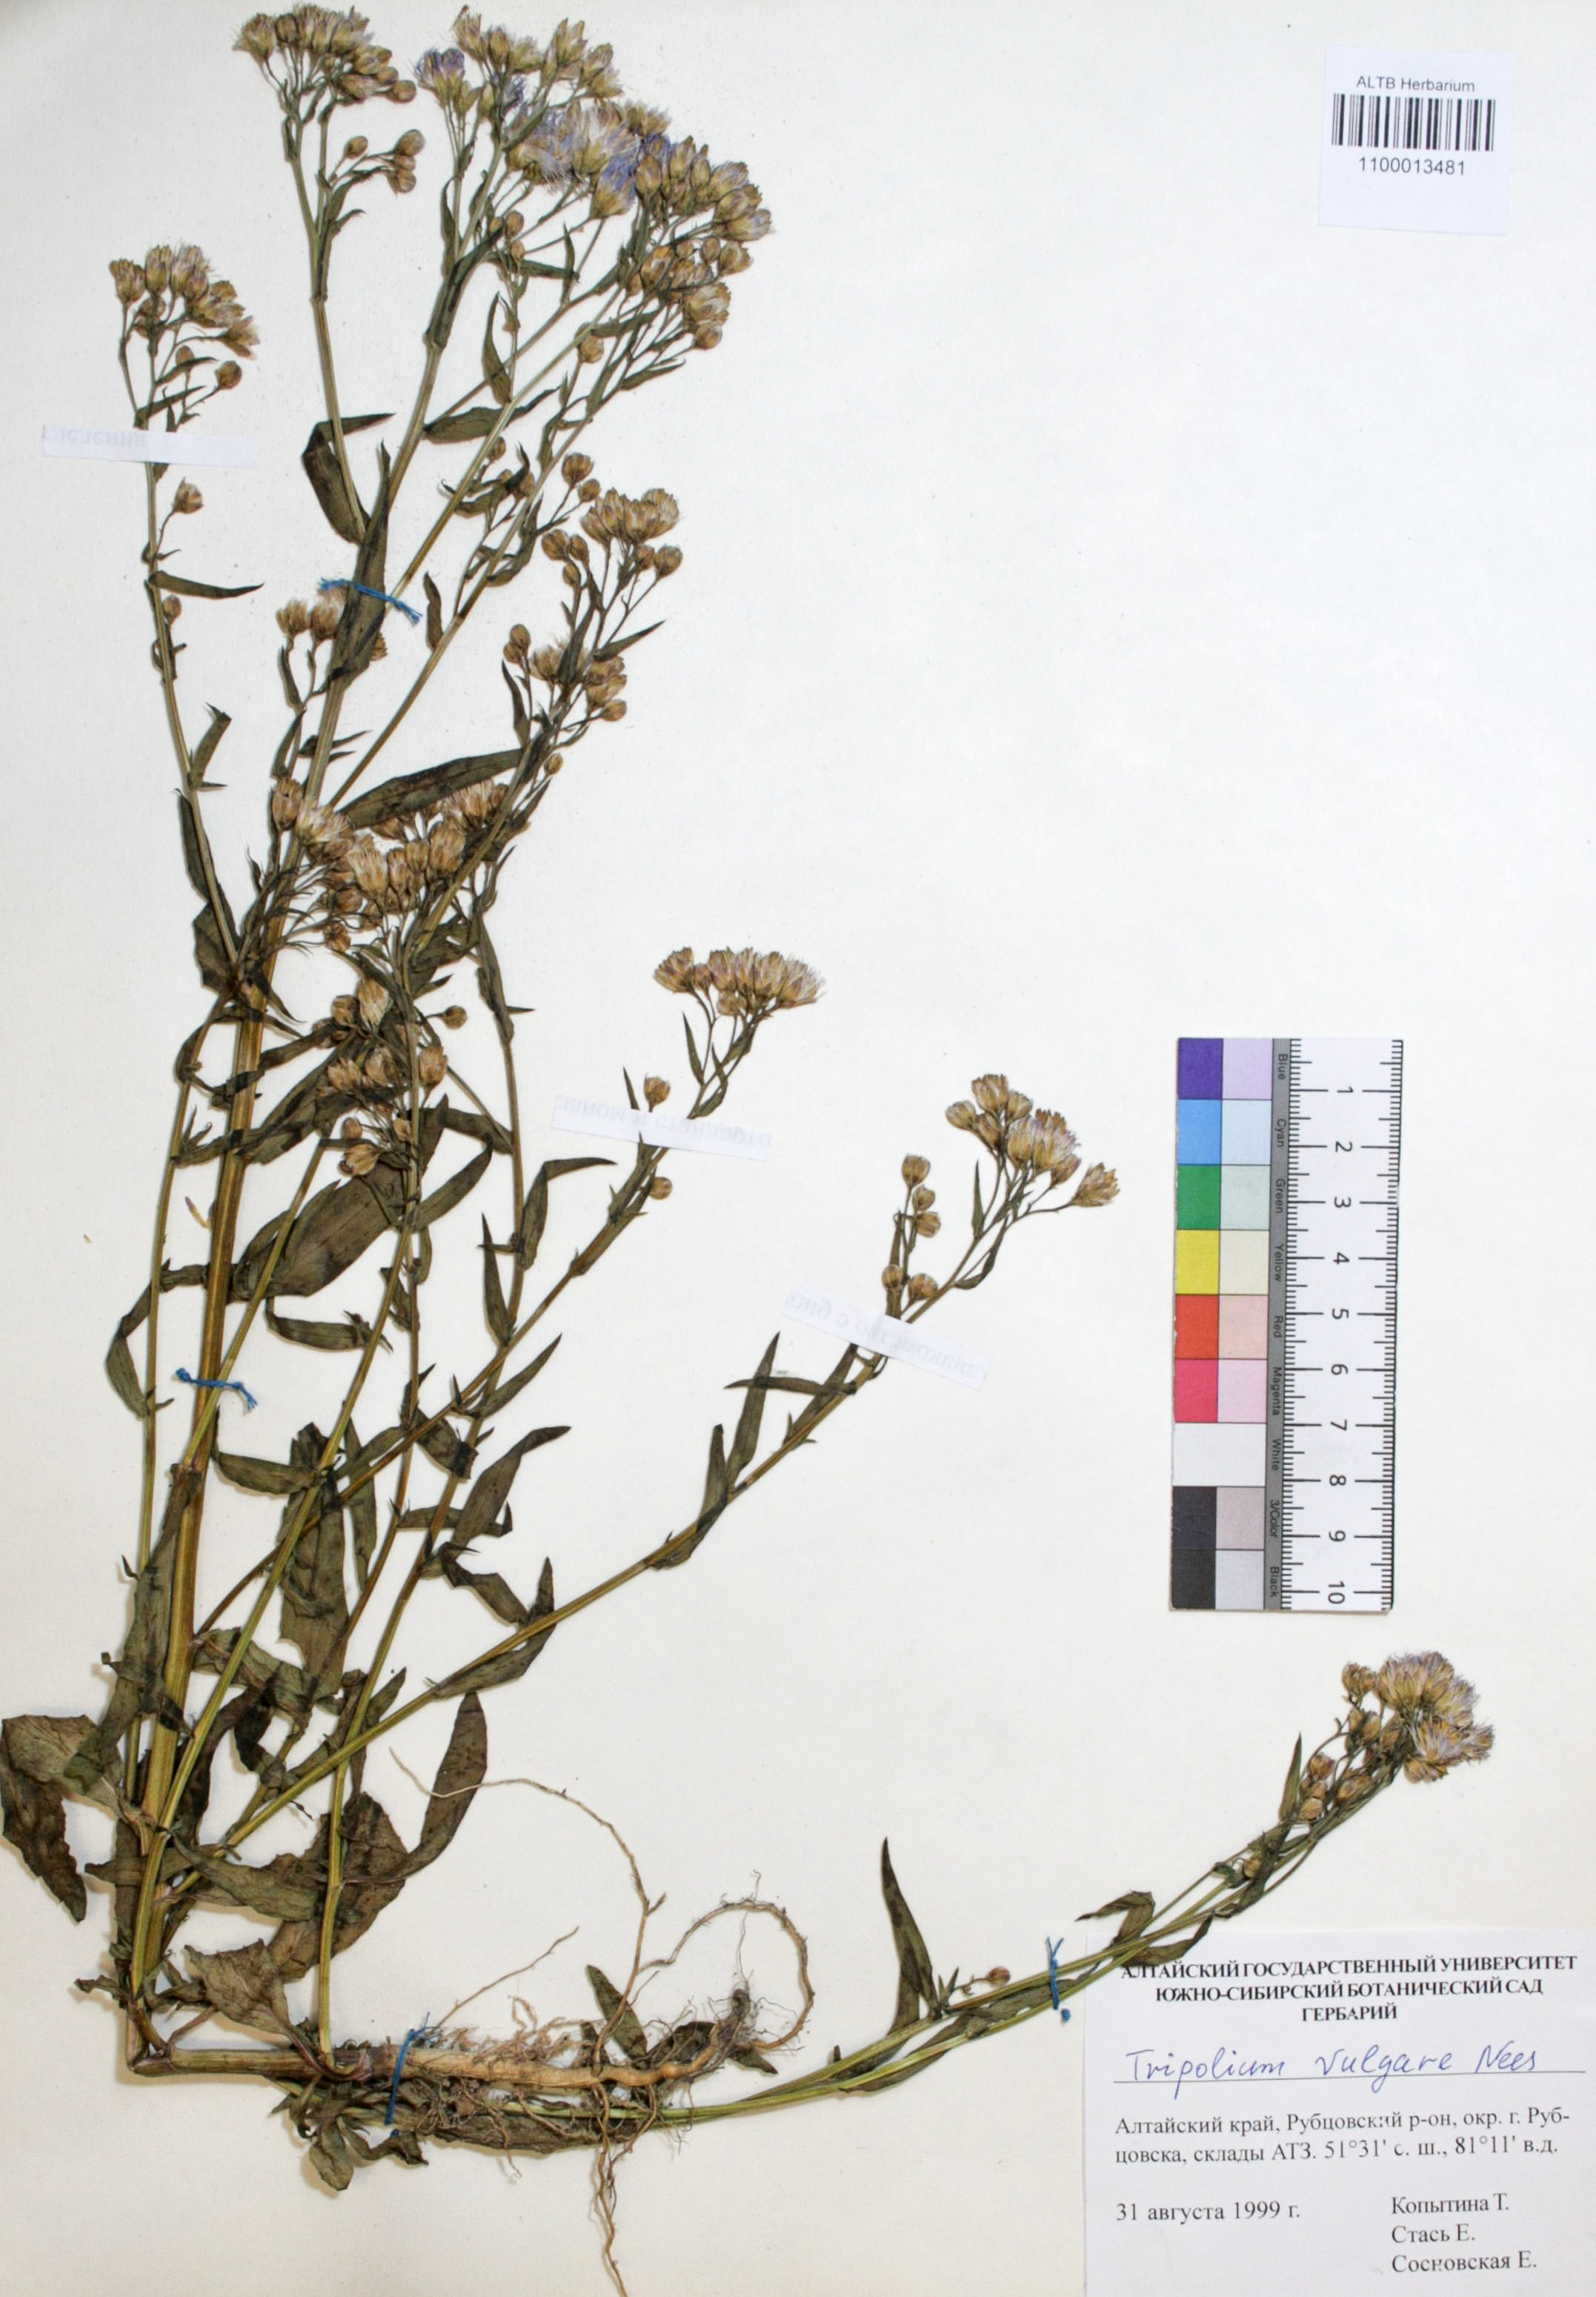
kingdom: Plantae
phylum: Tracheophyta
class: Magnoliopsida
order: Asterales
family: Asteraceae
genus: Tripolium
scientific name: Tripolium pannonicum
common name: Sea aster
